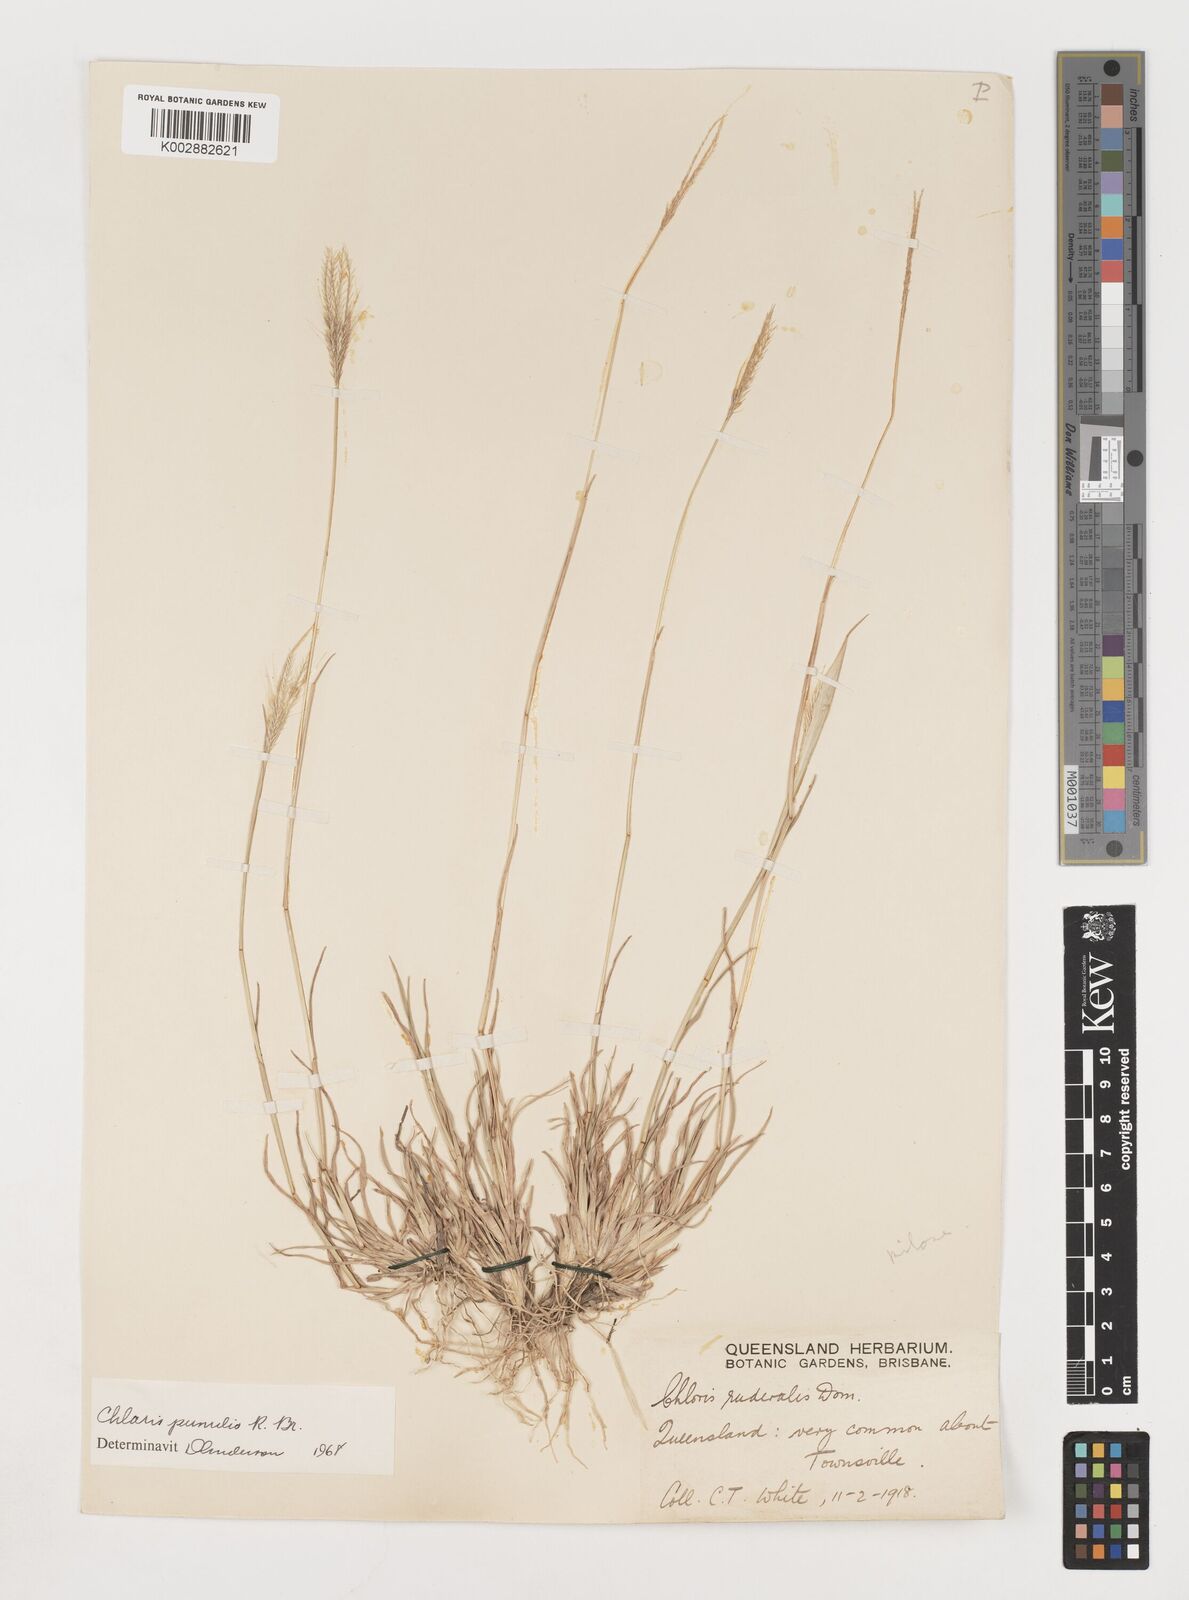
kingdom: Plantae
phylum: Tracheophyta
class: Liliopsida
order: Poales
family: Poaceae
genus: Chloris
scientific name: Chloris pumilio
